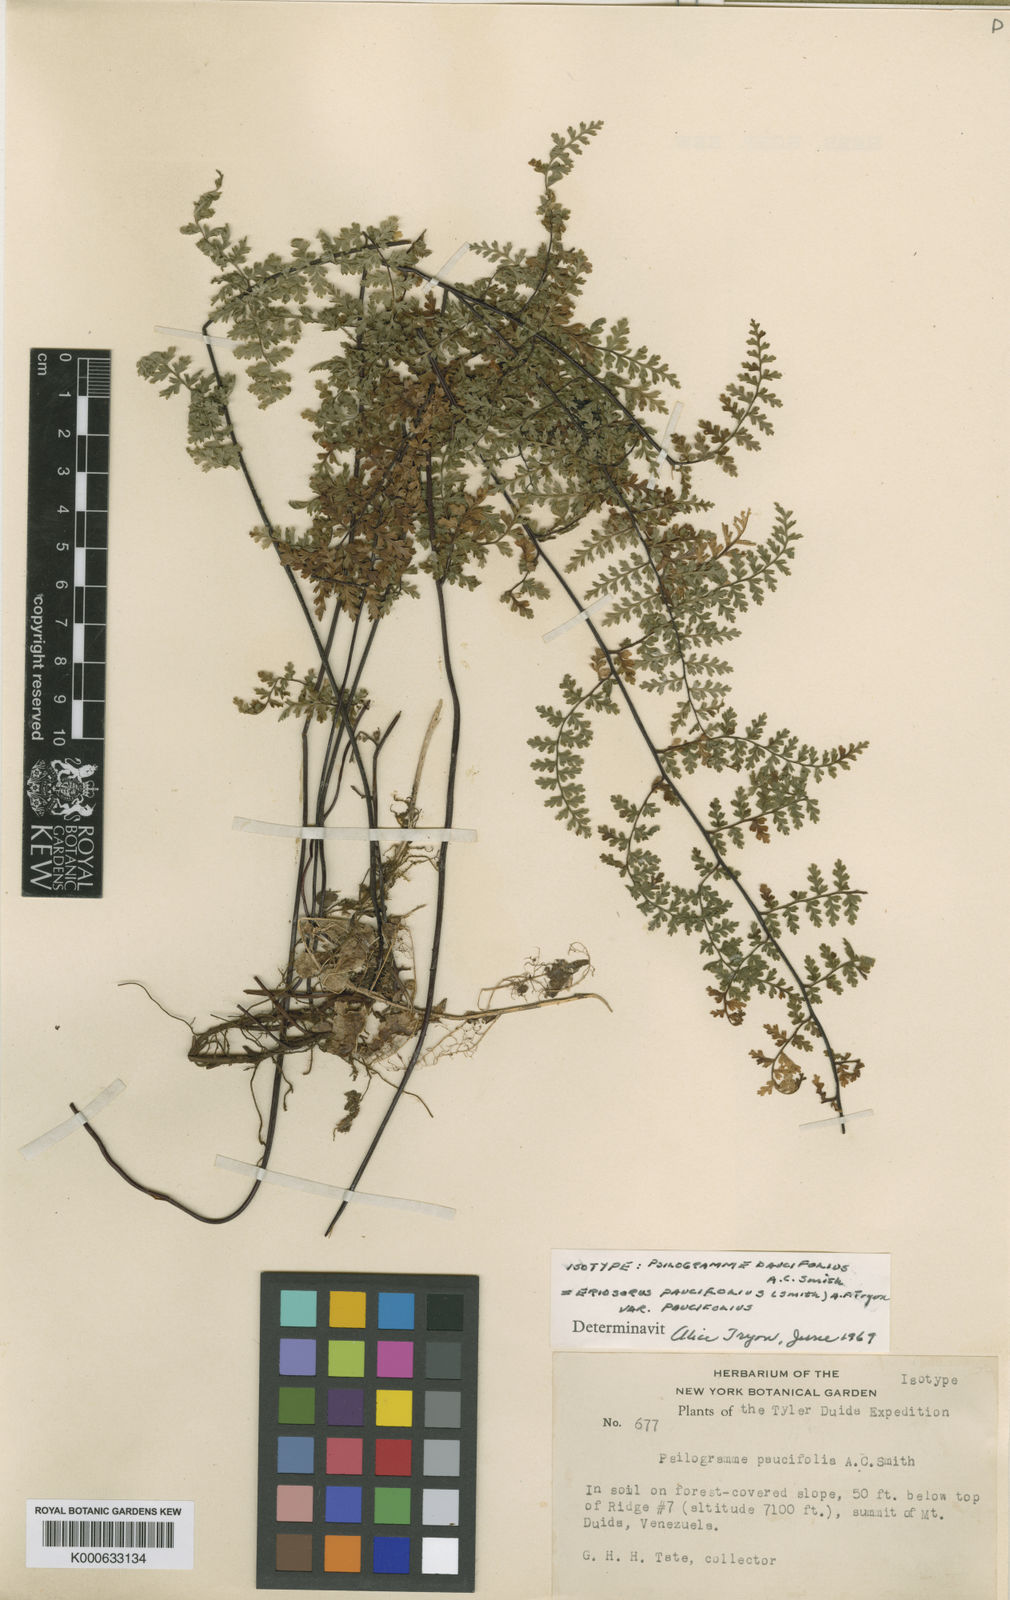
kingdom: Plantae
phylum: Tracheophyta
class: Polypodiopsida
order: Polypodiales
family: Pteridaceae
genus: Jamesonia
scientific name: Jamesonia paucifolia
